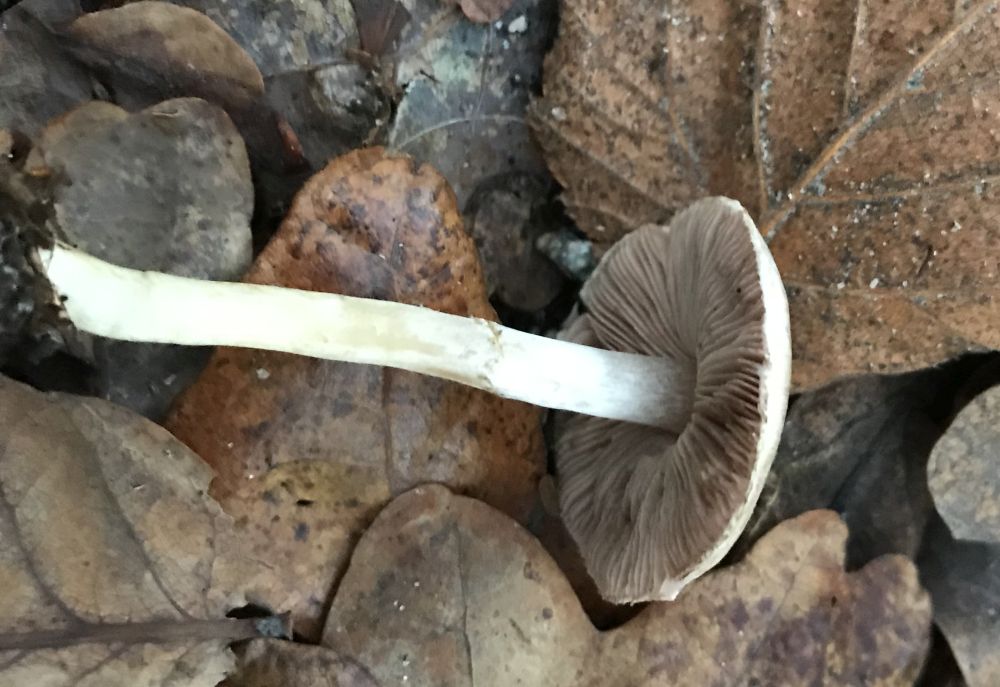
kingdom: Fungi
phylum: Basidiomycota
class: Agaricomycetes
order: Agaricales
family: Agaricaceae
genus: Agaricus
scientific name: Agaricus
